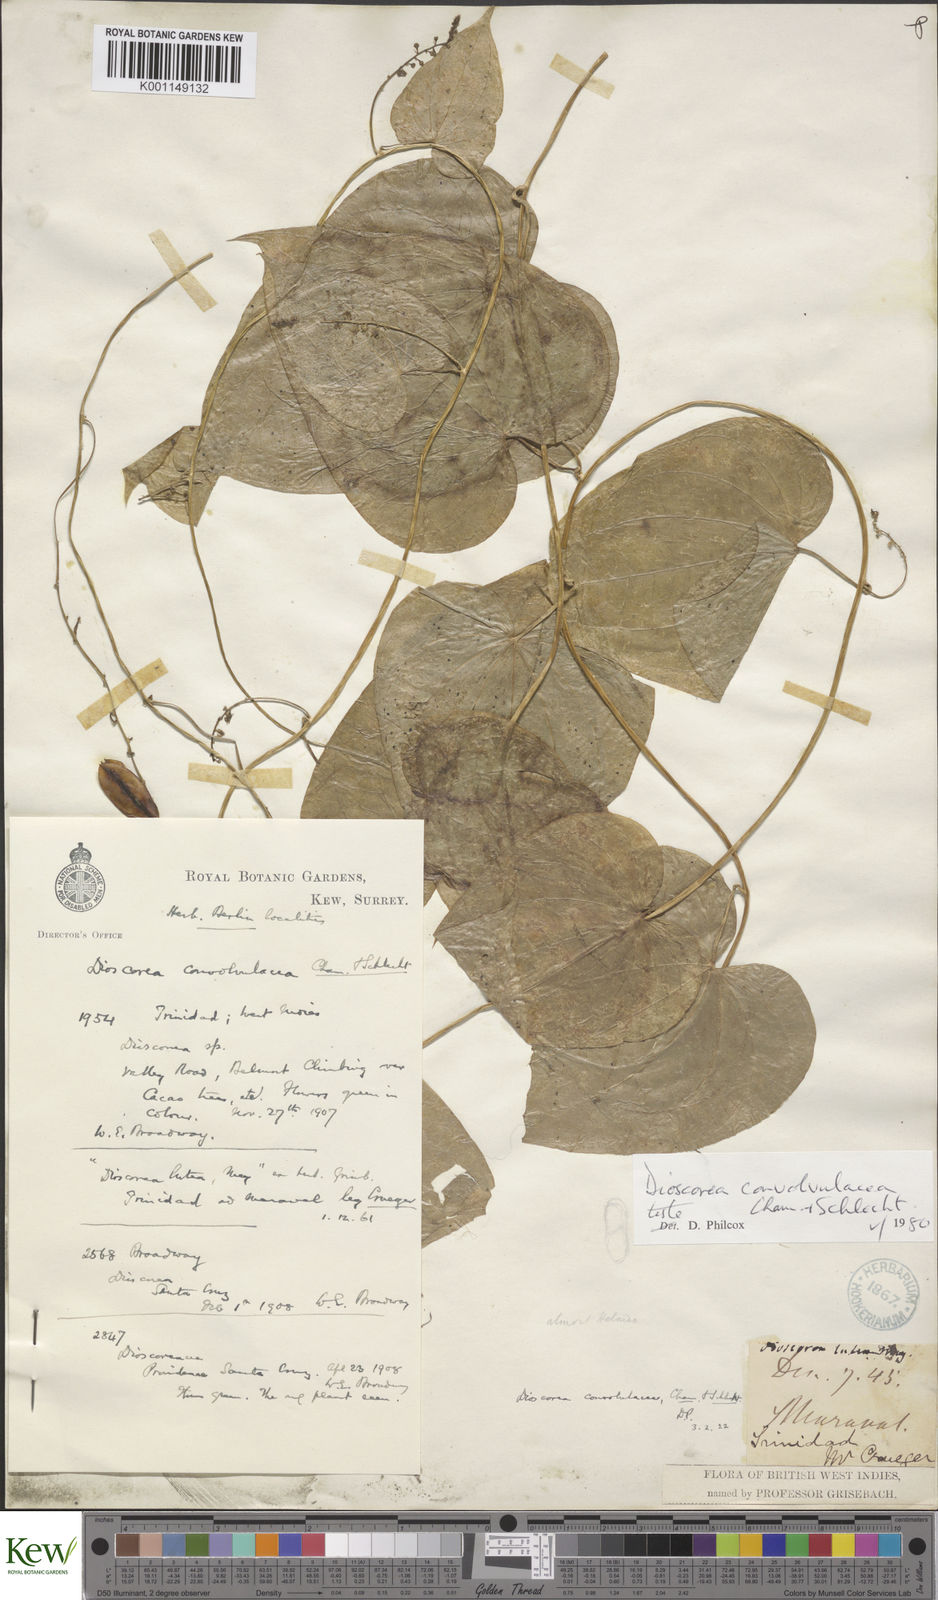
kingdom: Plantae
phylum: Tracheophyta
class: Liliopsida
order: Dioscoreales
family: Dioscoreaceae
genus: Dioscorea
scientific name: Dioscorea convolvulacea
